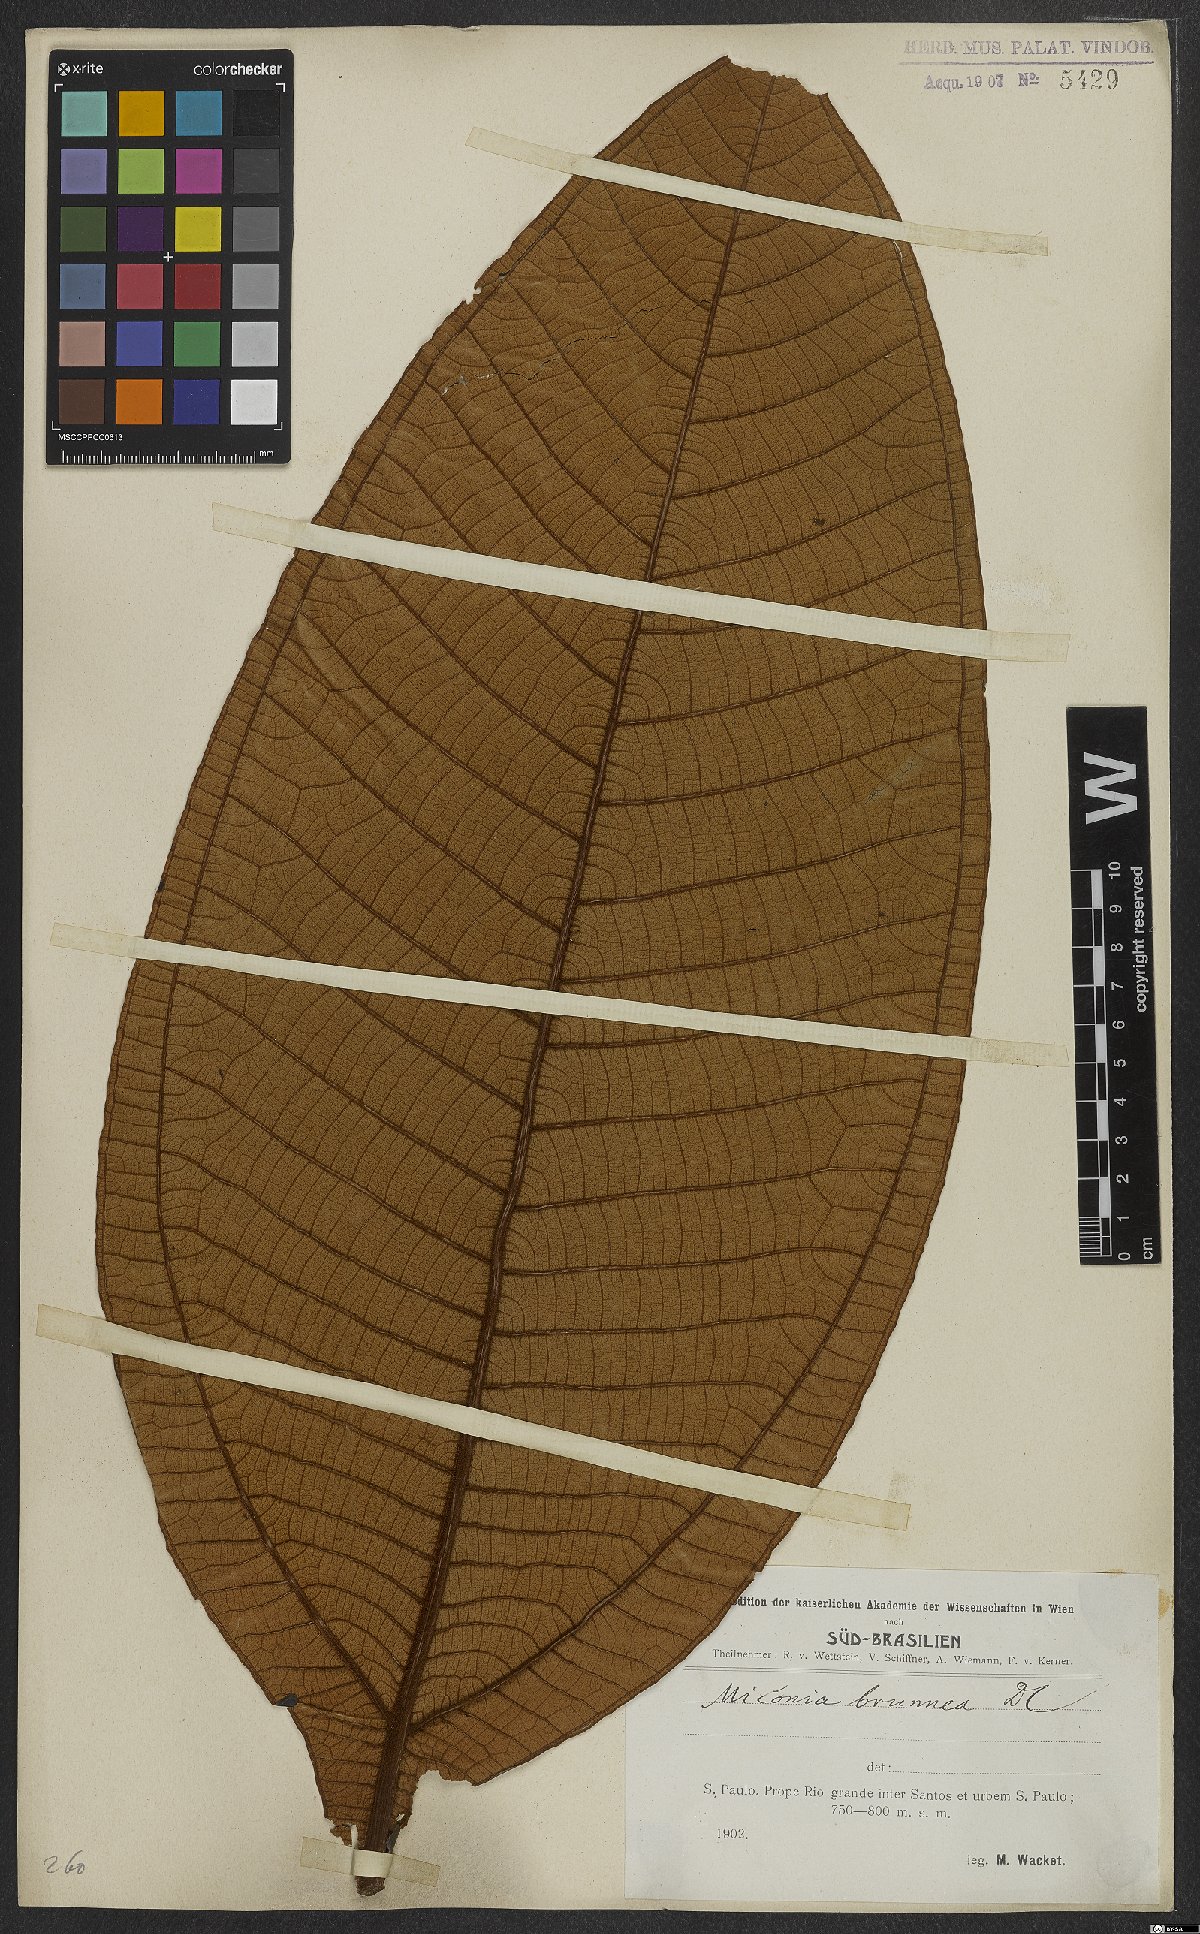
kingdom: Plantae
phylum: Tracheophyta
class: Magnoliopsida
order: Myrtales
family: Melastomataceae
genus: Miconia
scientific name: Miconia brunnea
